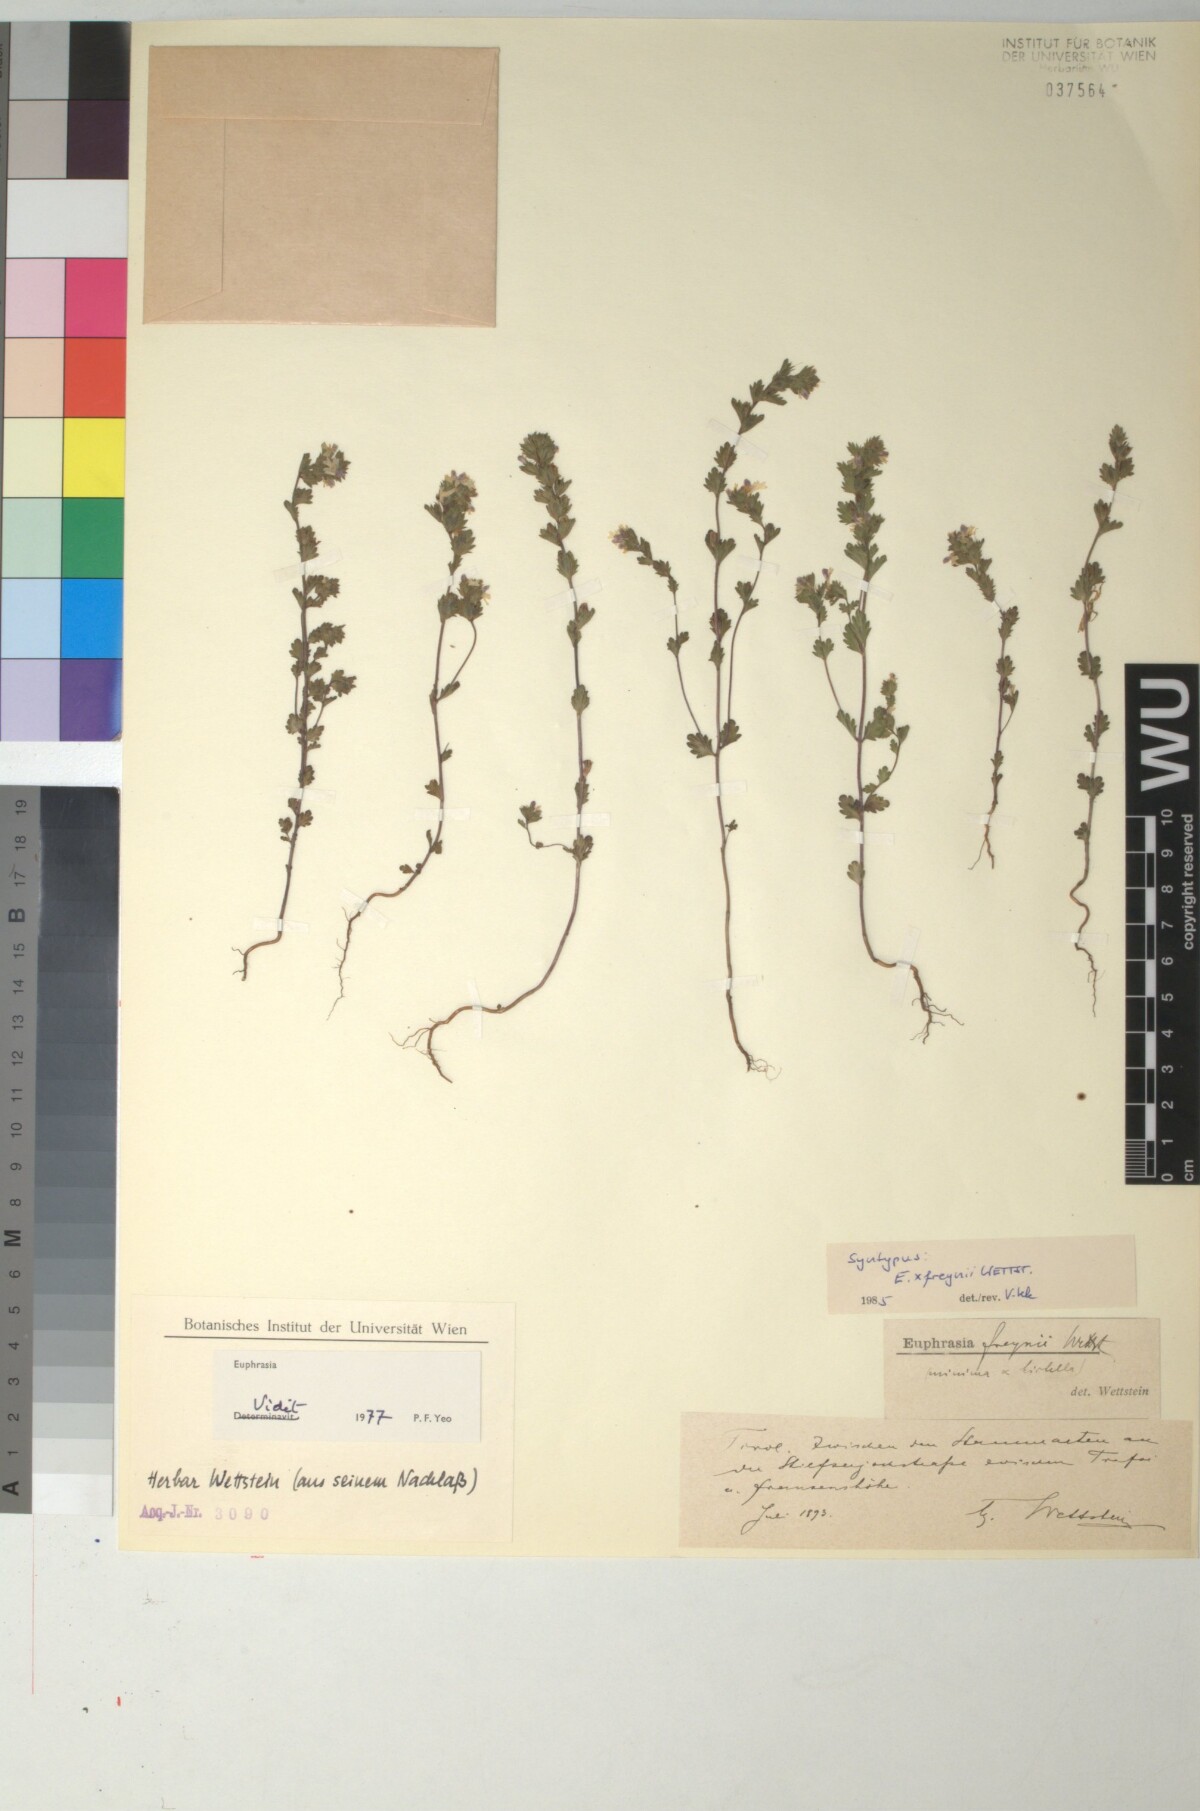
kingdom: Plantae
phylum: Tracheophyta
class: Magnoliopsida
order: Lamiales
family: Scrophulariaceae
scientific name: Scrophulariaceae
